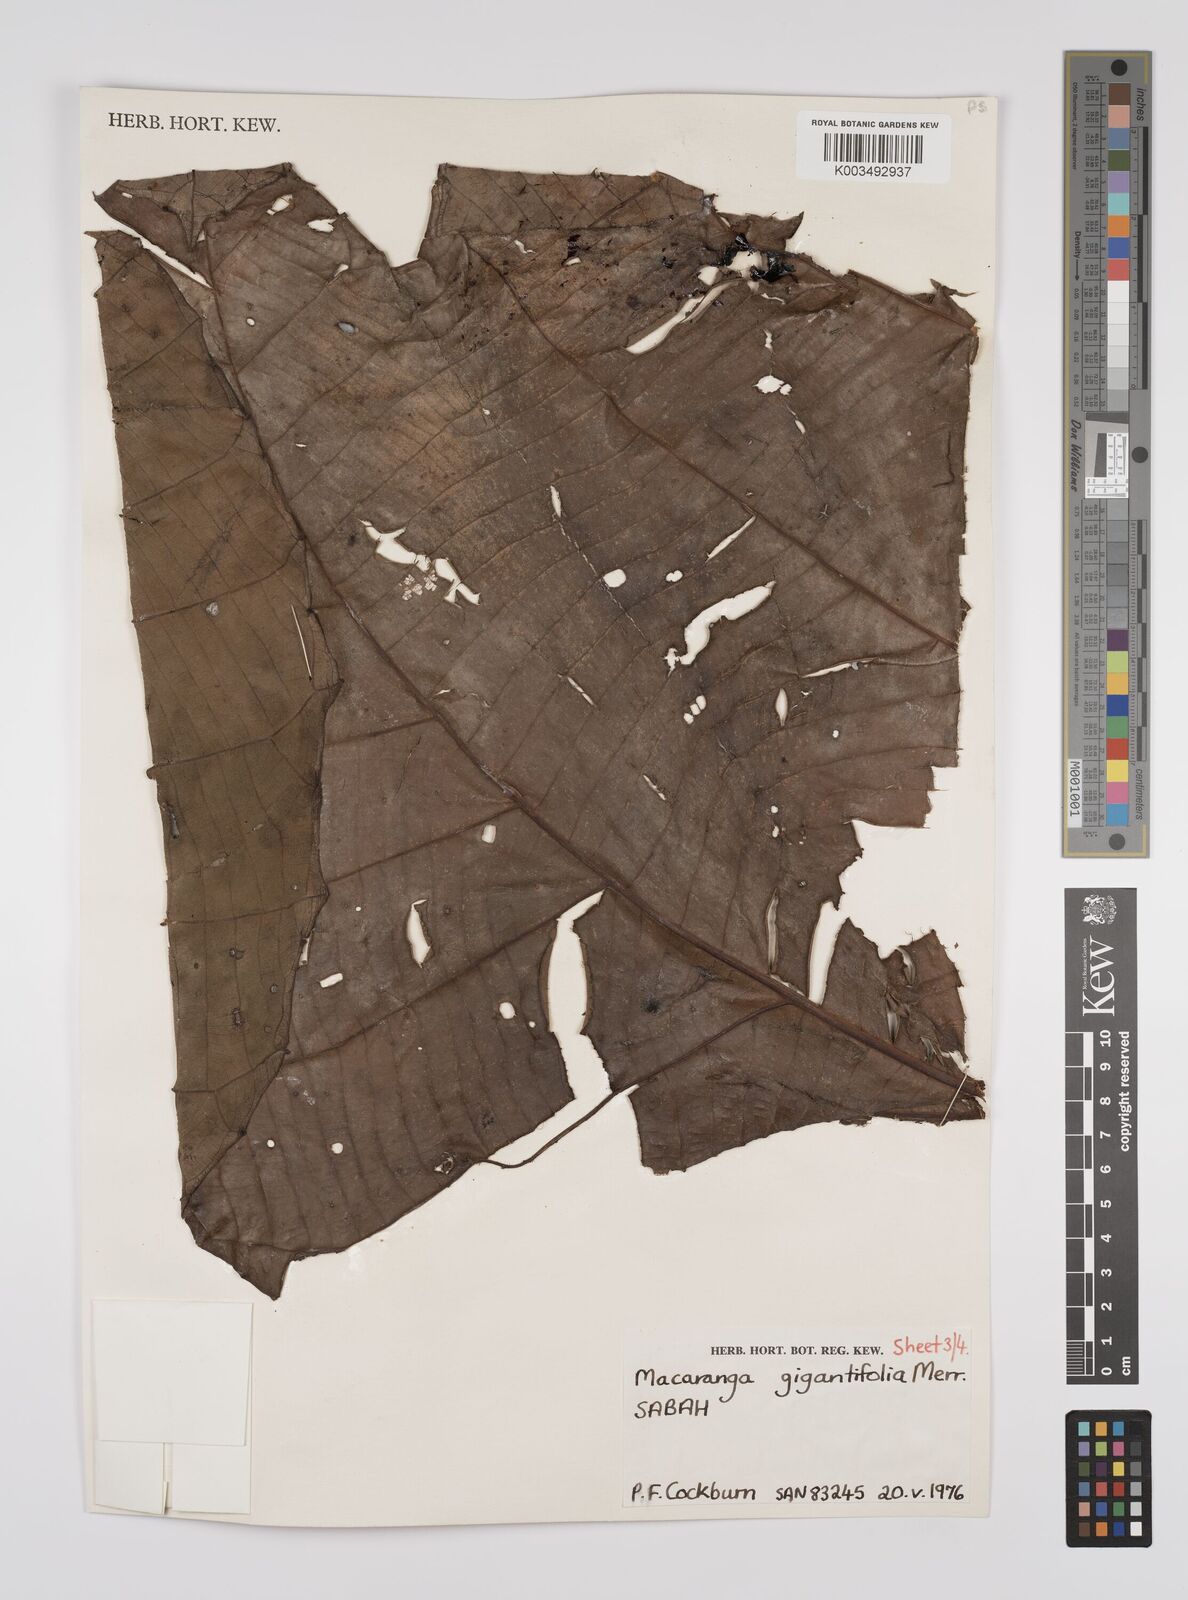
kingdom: Plantae
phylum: Tracheophyta
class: Magnoliopsida
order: Malpighiales
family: Euphorbiaceae
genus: Macaranga
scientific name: Macaranga gigantifolia
